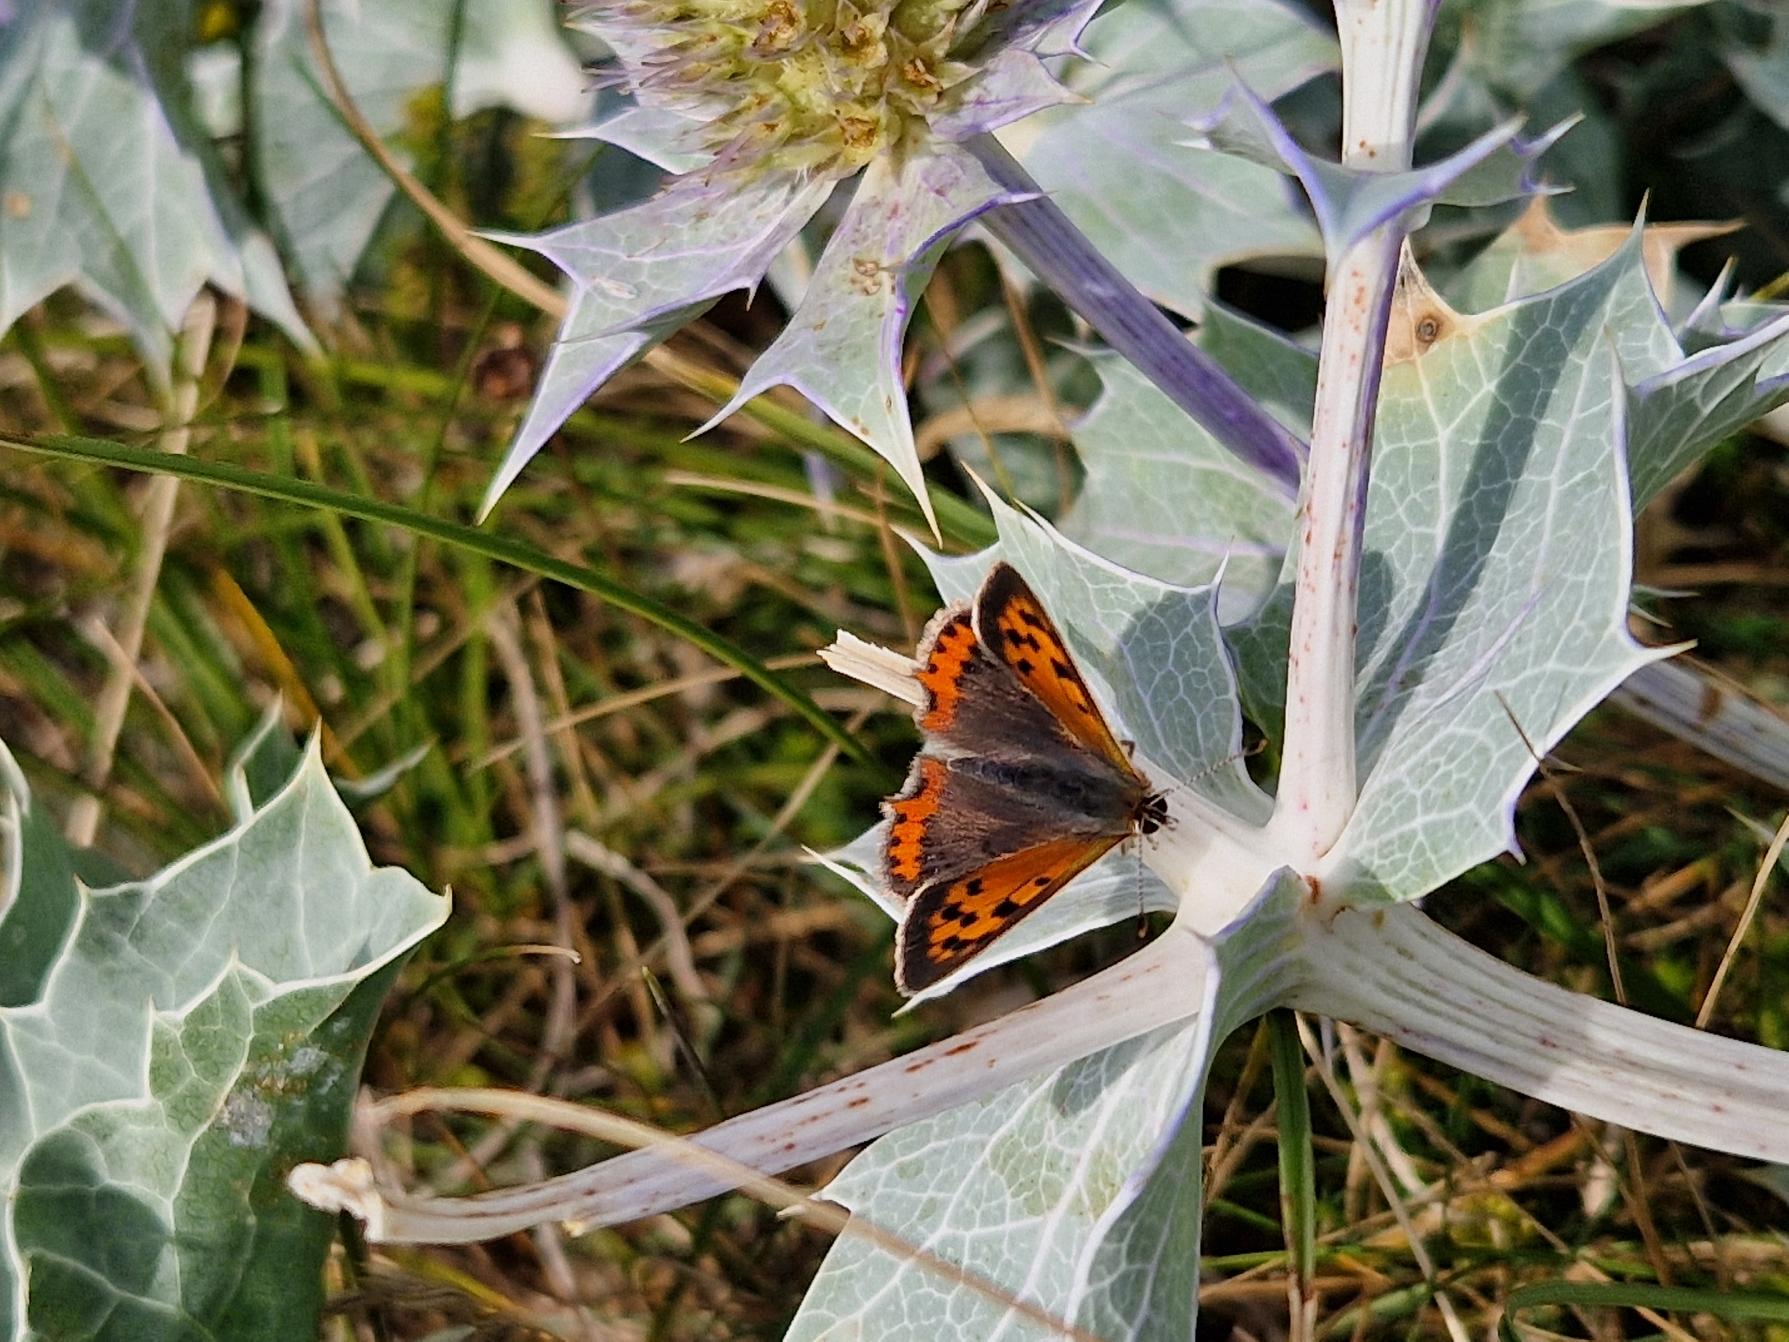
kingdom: Animalia
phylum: Arthropoda
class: Insecta
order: Lepidoptera
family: Lycaenidae
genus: Lycaena
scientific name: Lycaena phlaeas
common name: Lille ildfugl
